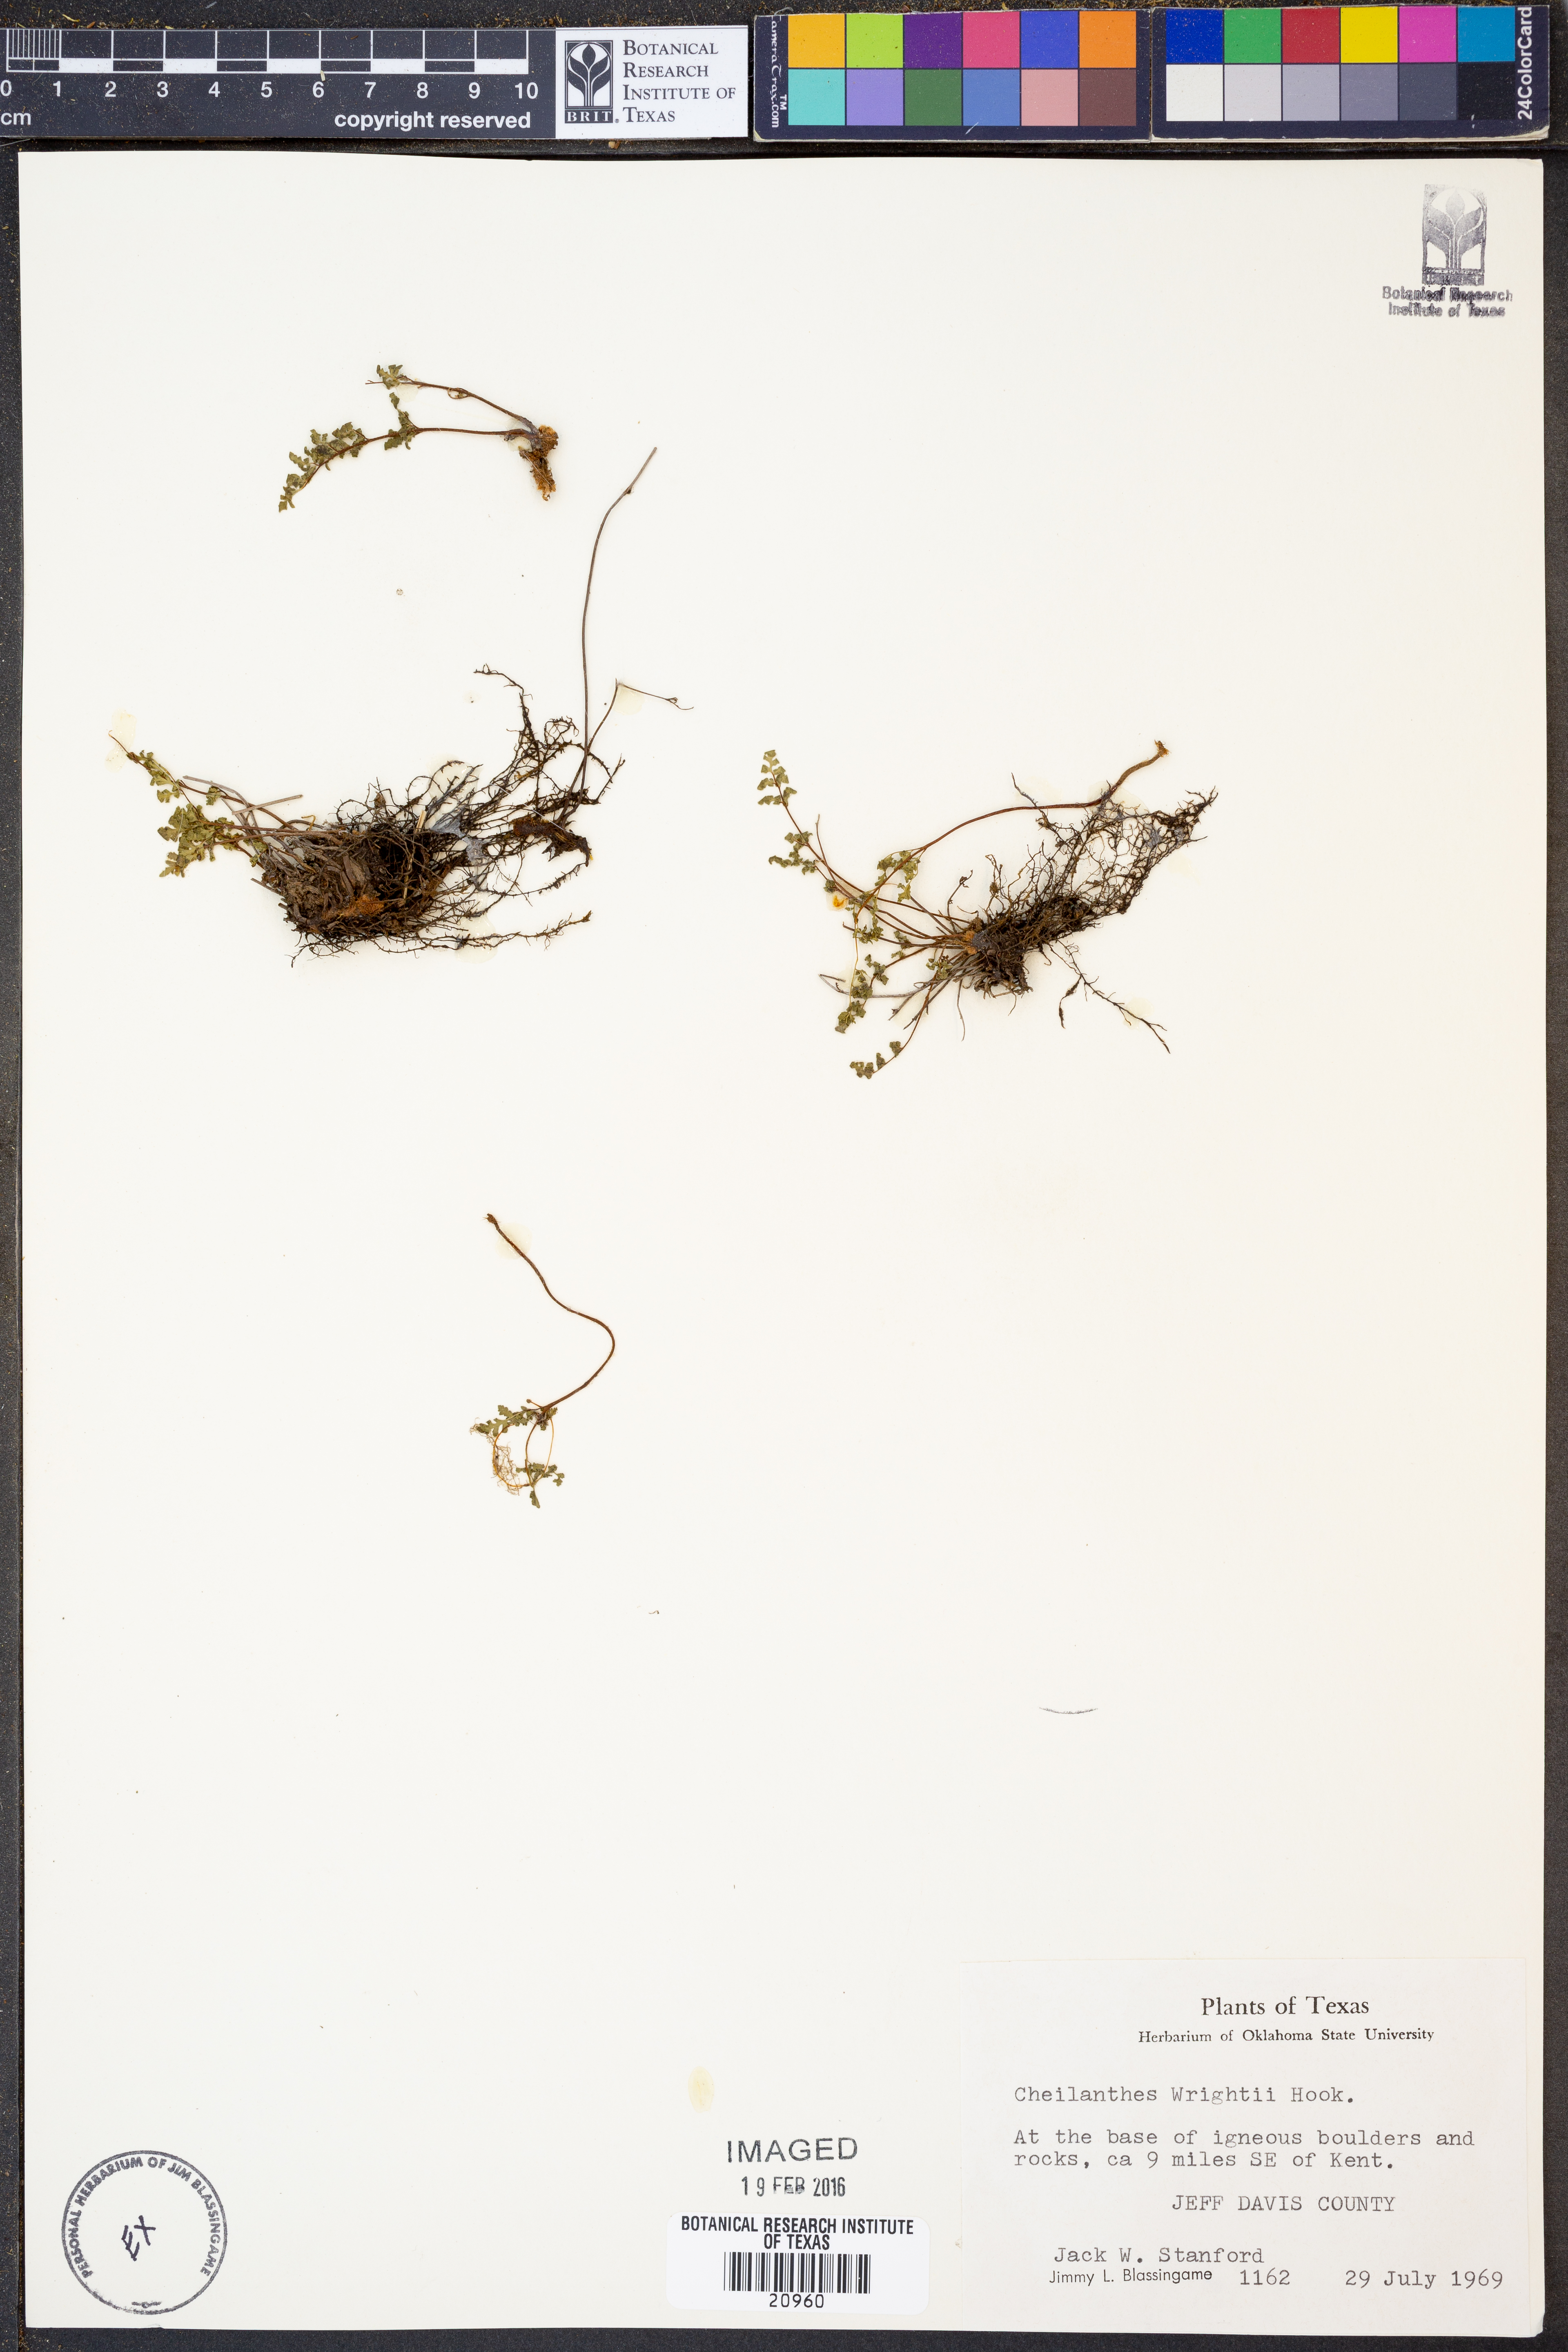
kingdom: Plantae
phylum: Tracheophyta
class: Polypodiopsida
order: Polypodiales
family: Pteridaceae
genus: Myriopteris
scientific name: Myriopteris wrightii
